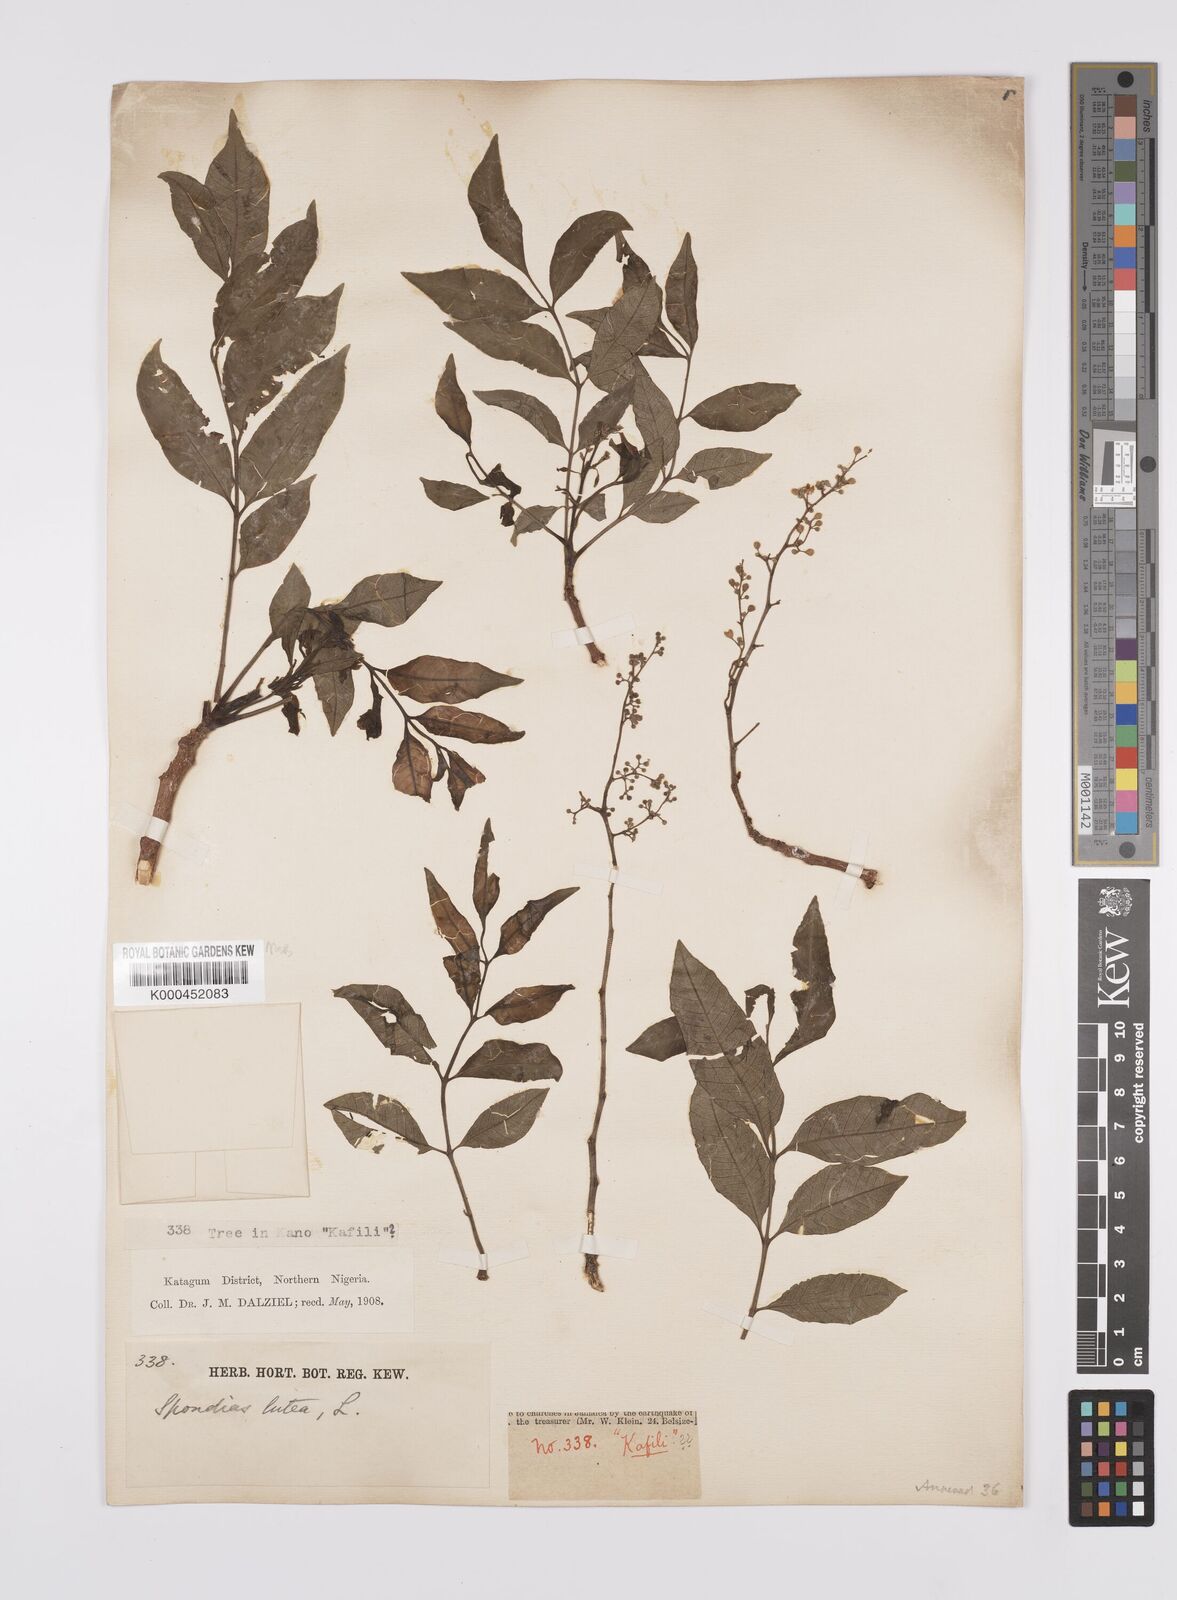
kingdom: Plantae
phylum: Tracheophyta
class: Magnoliopsida
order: Sapindales
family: Anacardiaceae
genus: Spondias
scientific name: Spondias mombin
